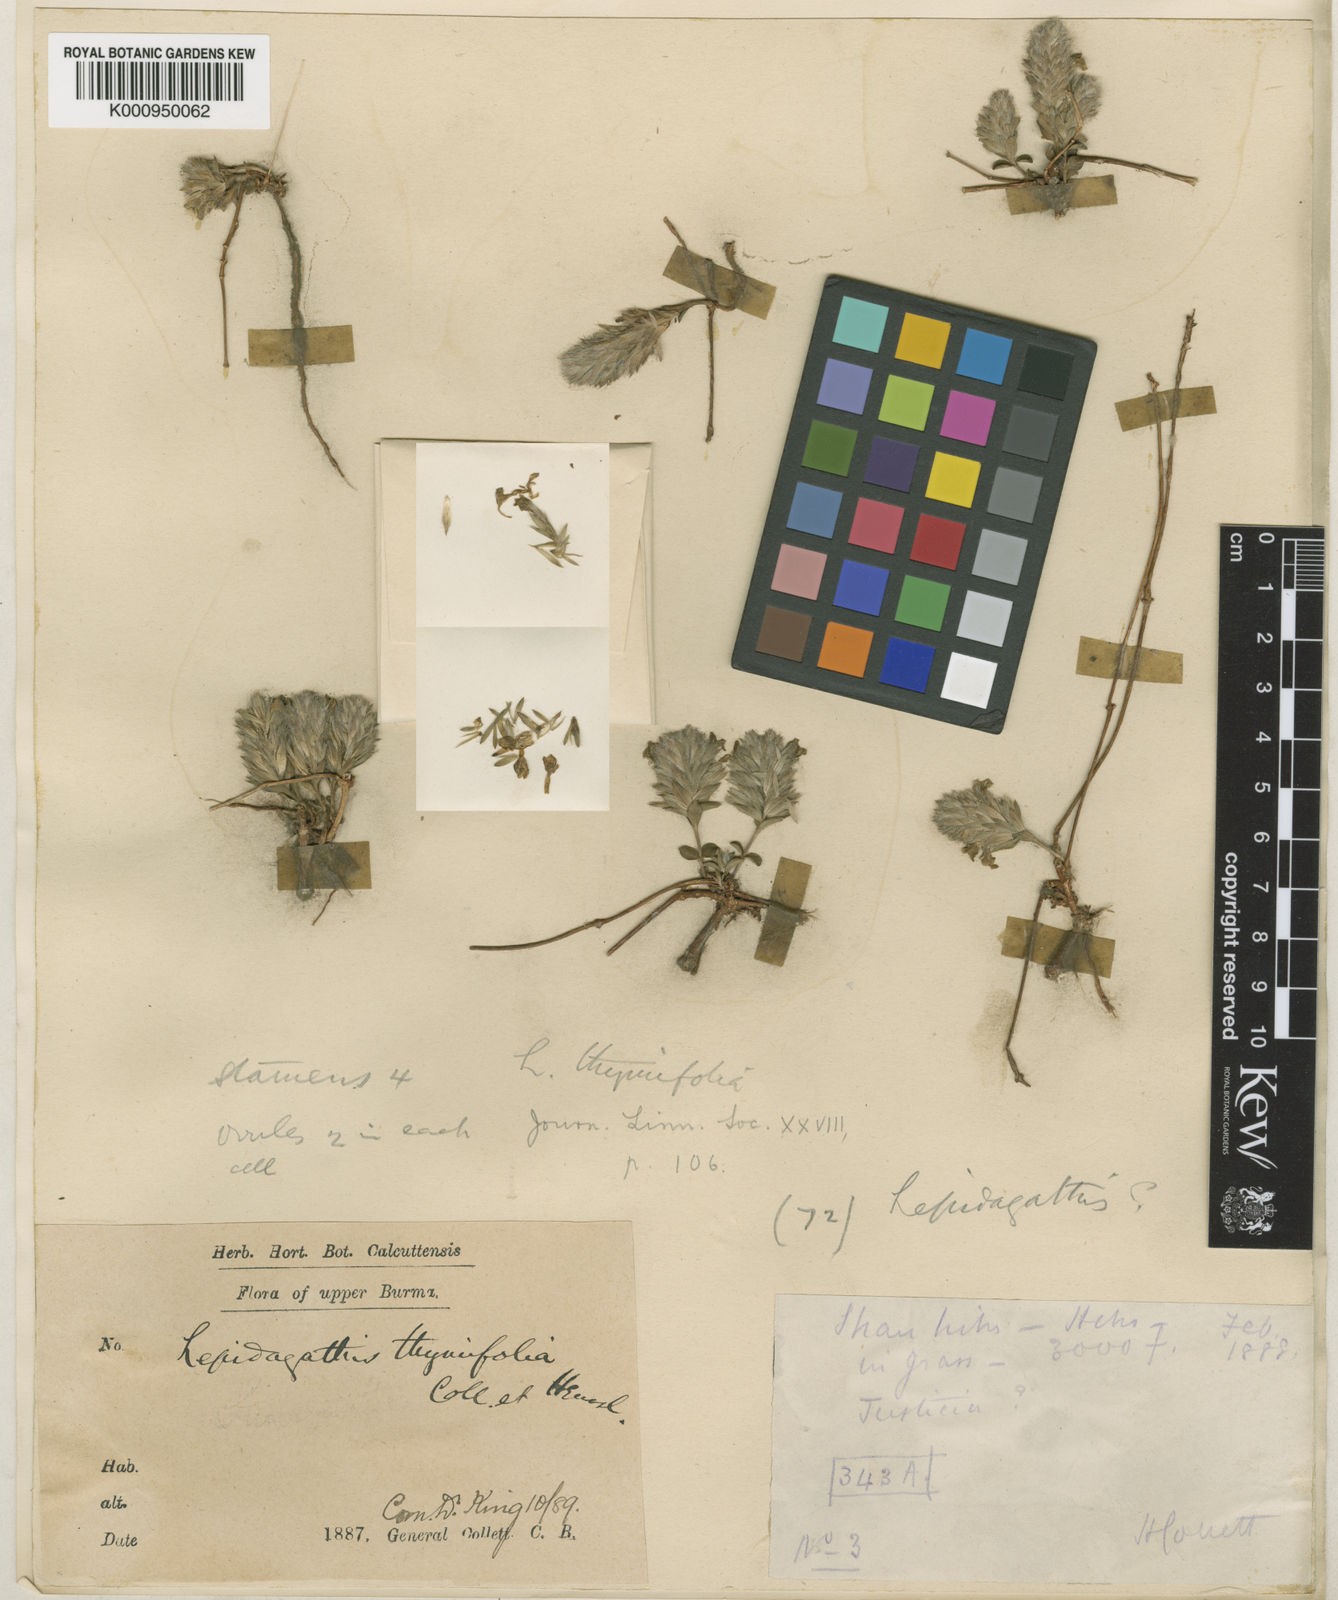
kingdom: Plantae
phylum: Tracheophyta
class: Magnoliopsida
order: Lamiales
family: Acanthaceae
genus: Lepidagathis
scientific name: Lepidagathis thymifolia
